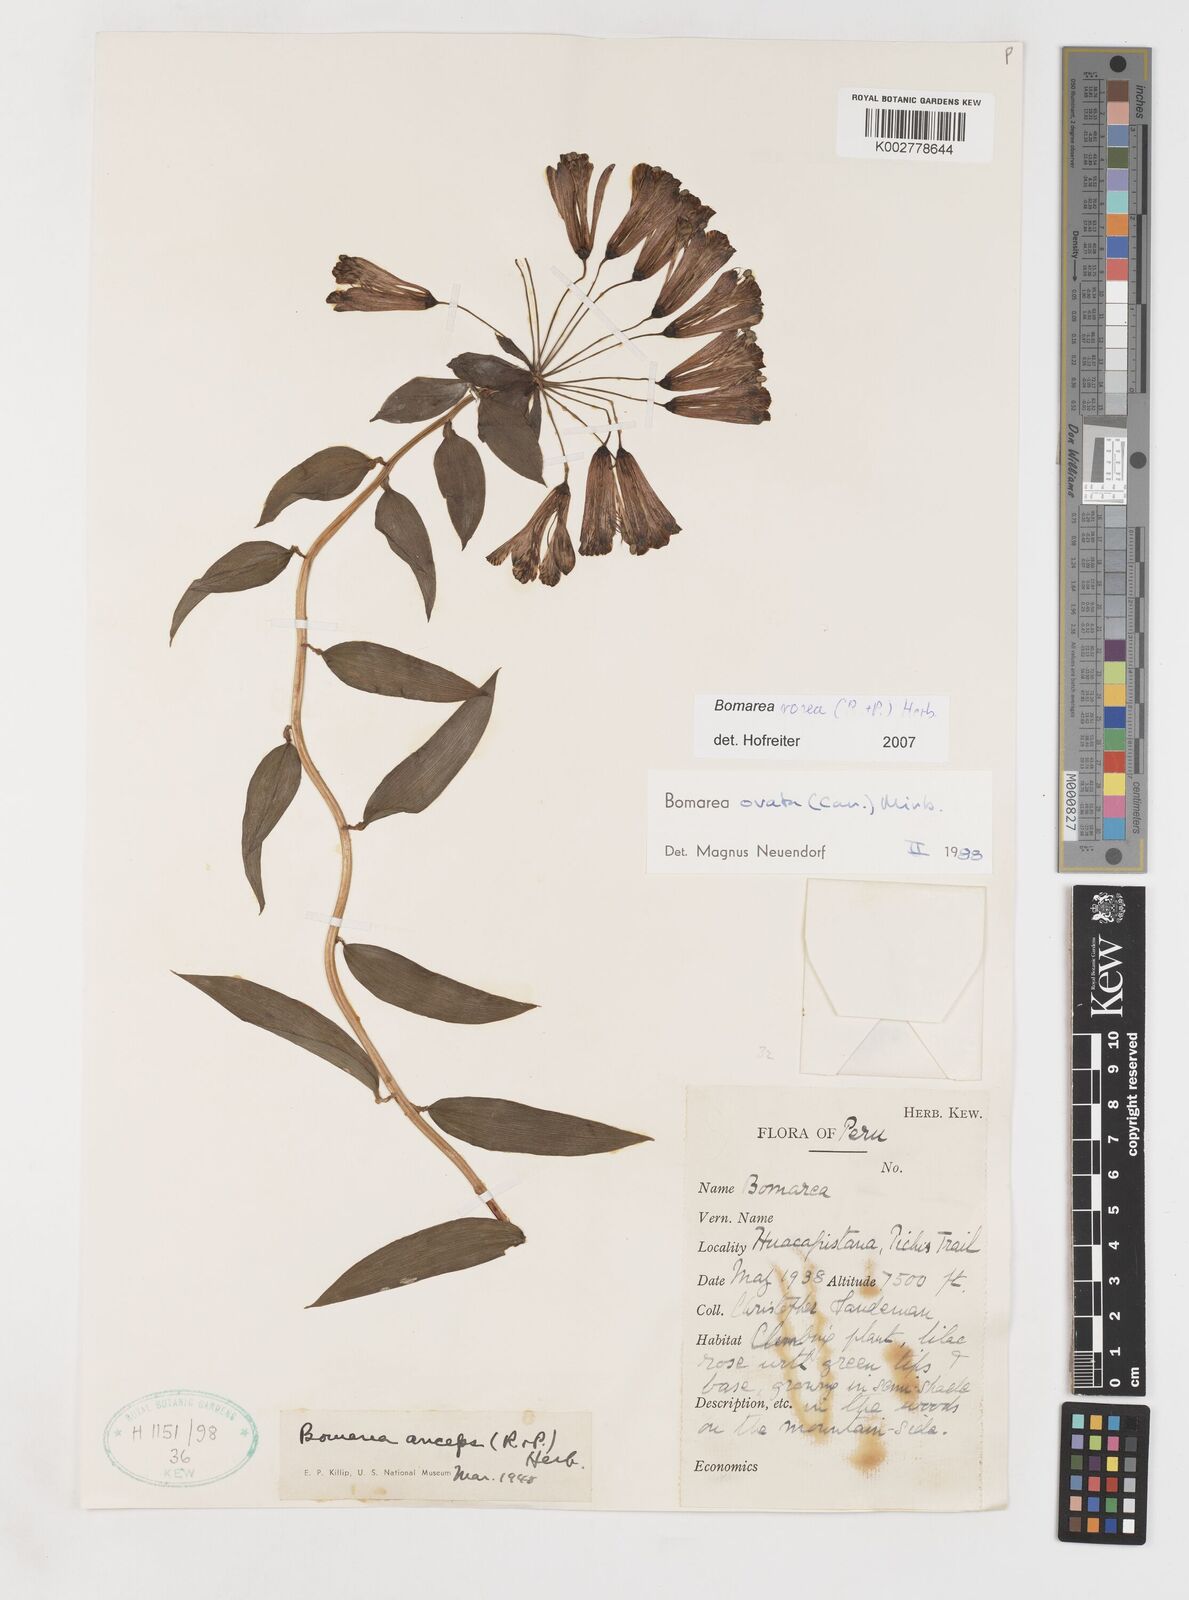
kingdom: Plantae
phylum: Tracheophyta
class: Liliopsida
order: Liliales
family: Alstroemeriaceae
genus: Bomarea
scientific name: Bomarea rosea
